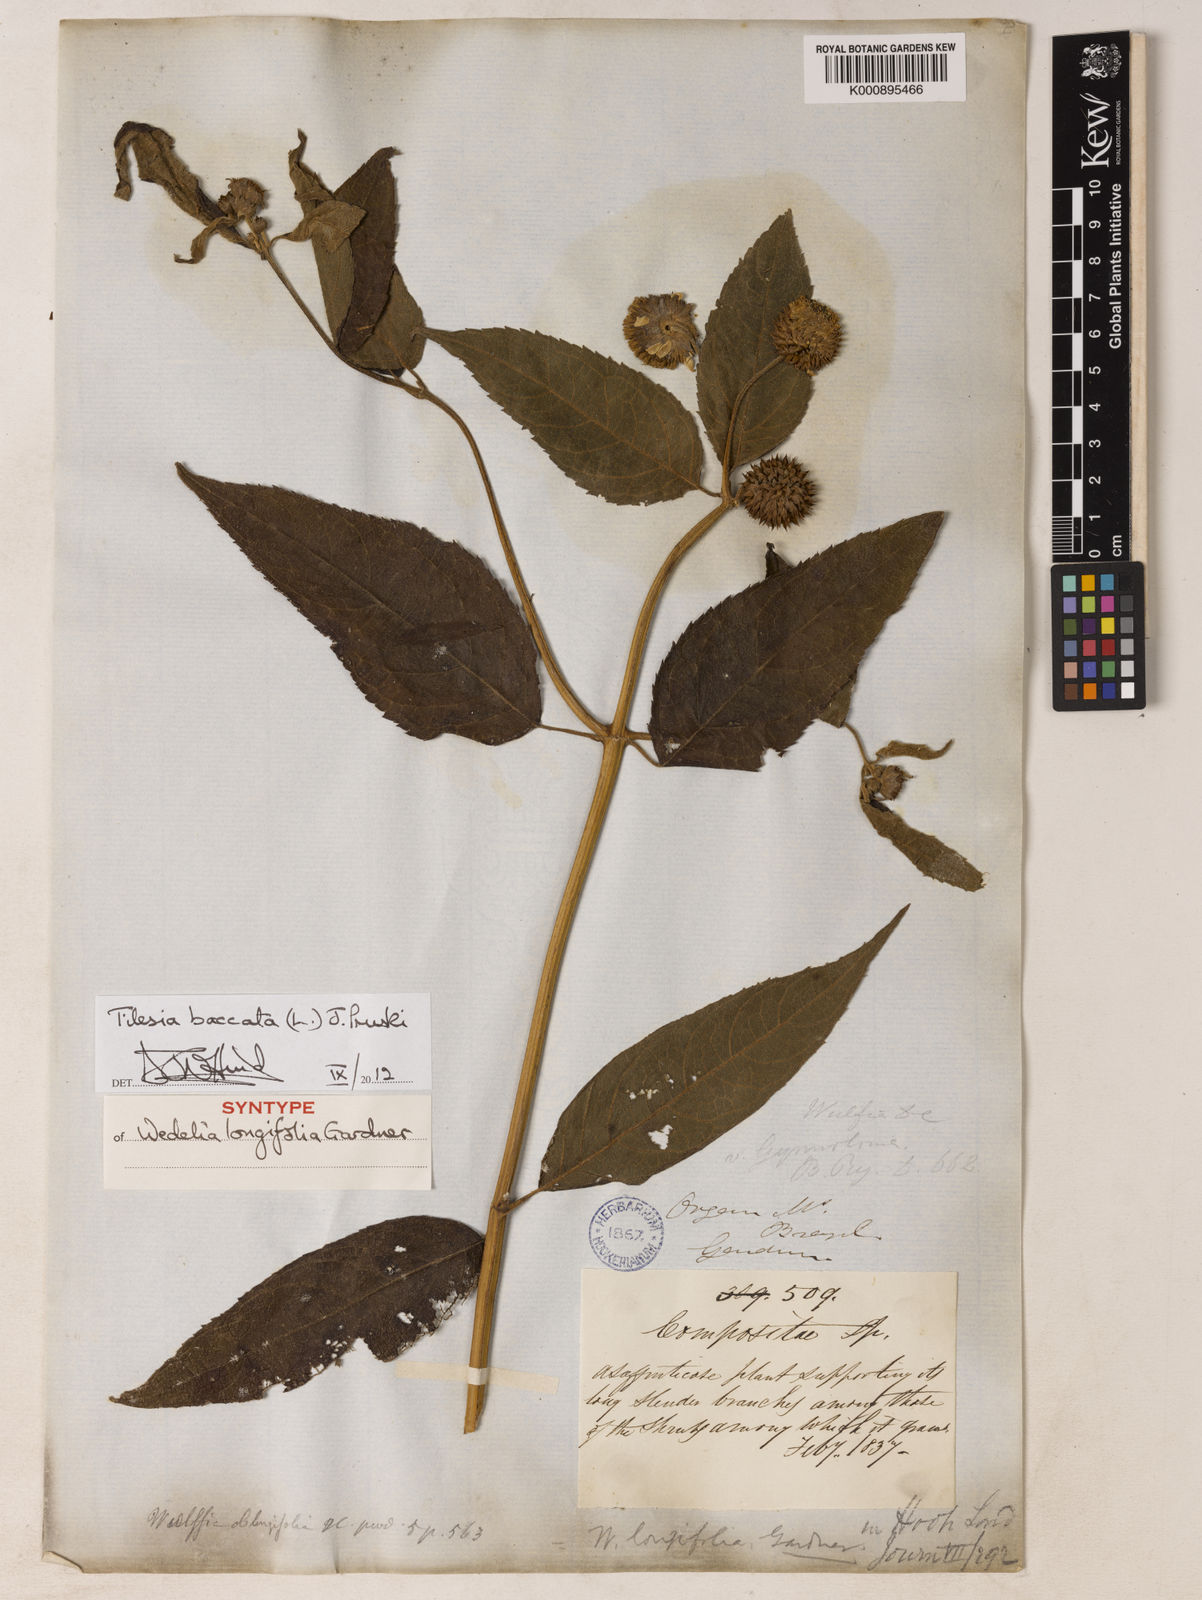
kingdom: Plantae
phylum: Tracheophyta
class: Magnoliopsida
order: Asterales
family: Asteraceae
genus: Tilesia
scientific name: Tilesia baccata
